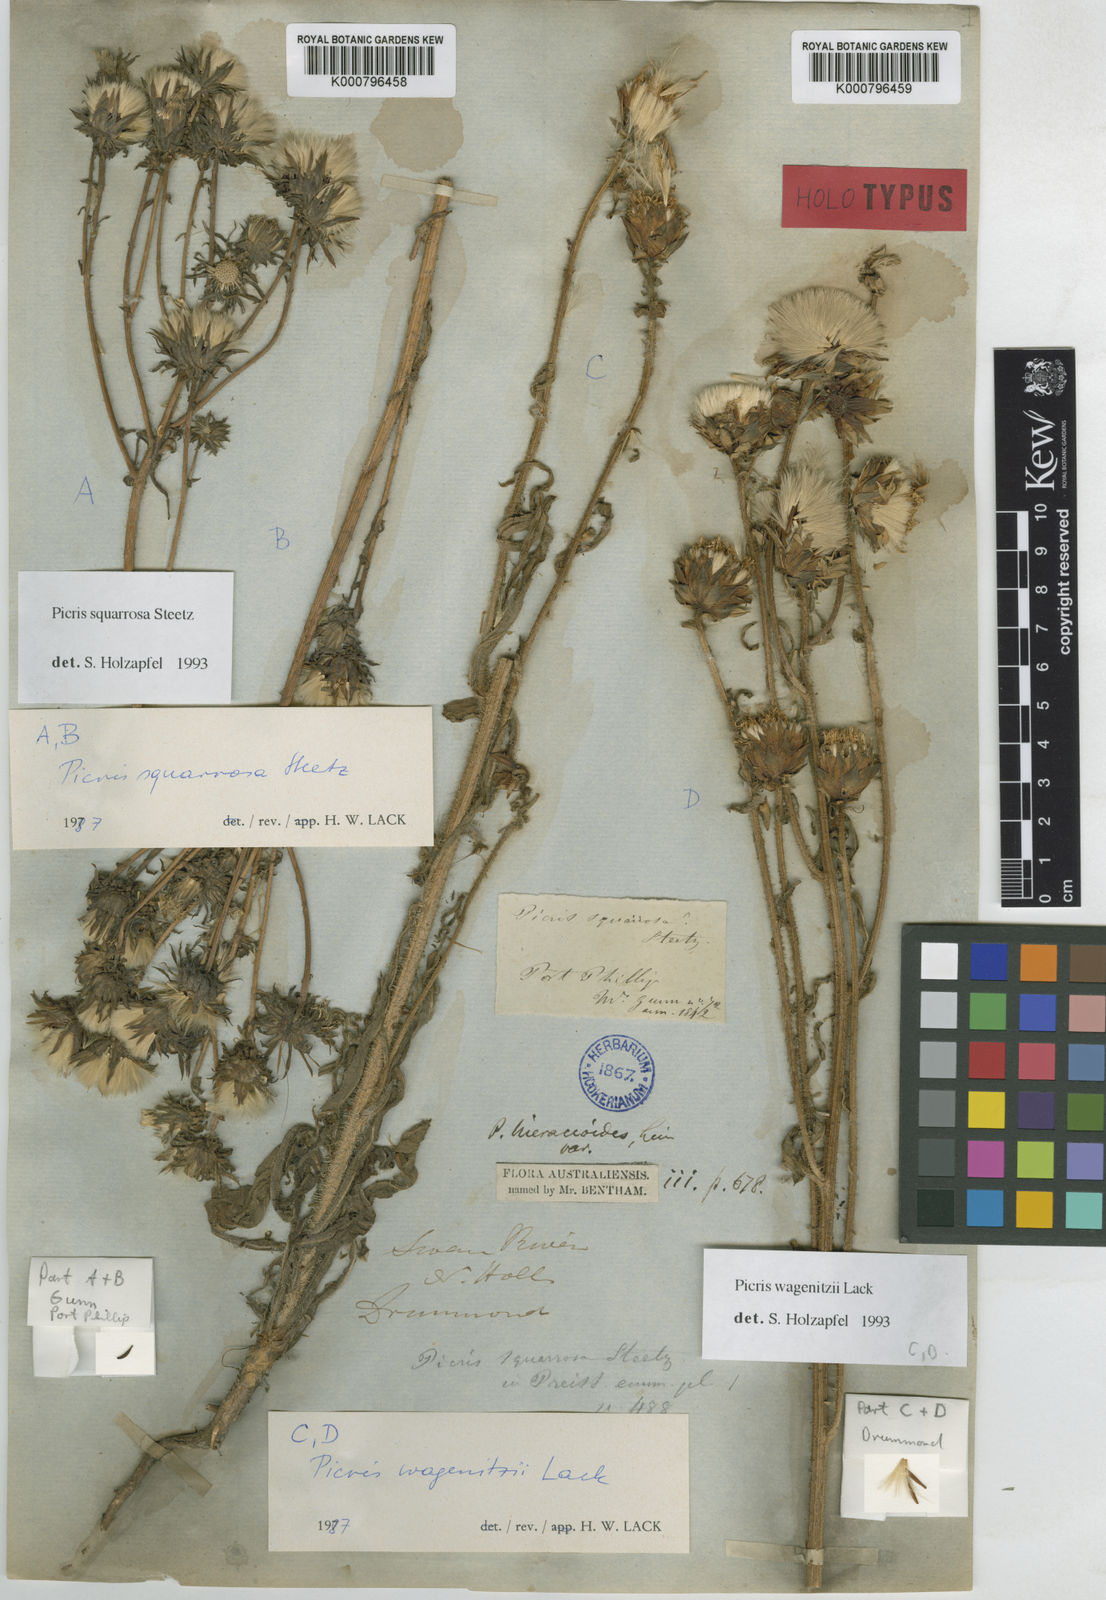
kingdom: Plantae
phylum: Tracheophyta
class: Magnoliopsida
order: Asterales
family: Asteraceae
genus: Picris
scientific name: Picris wagenitzii
